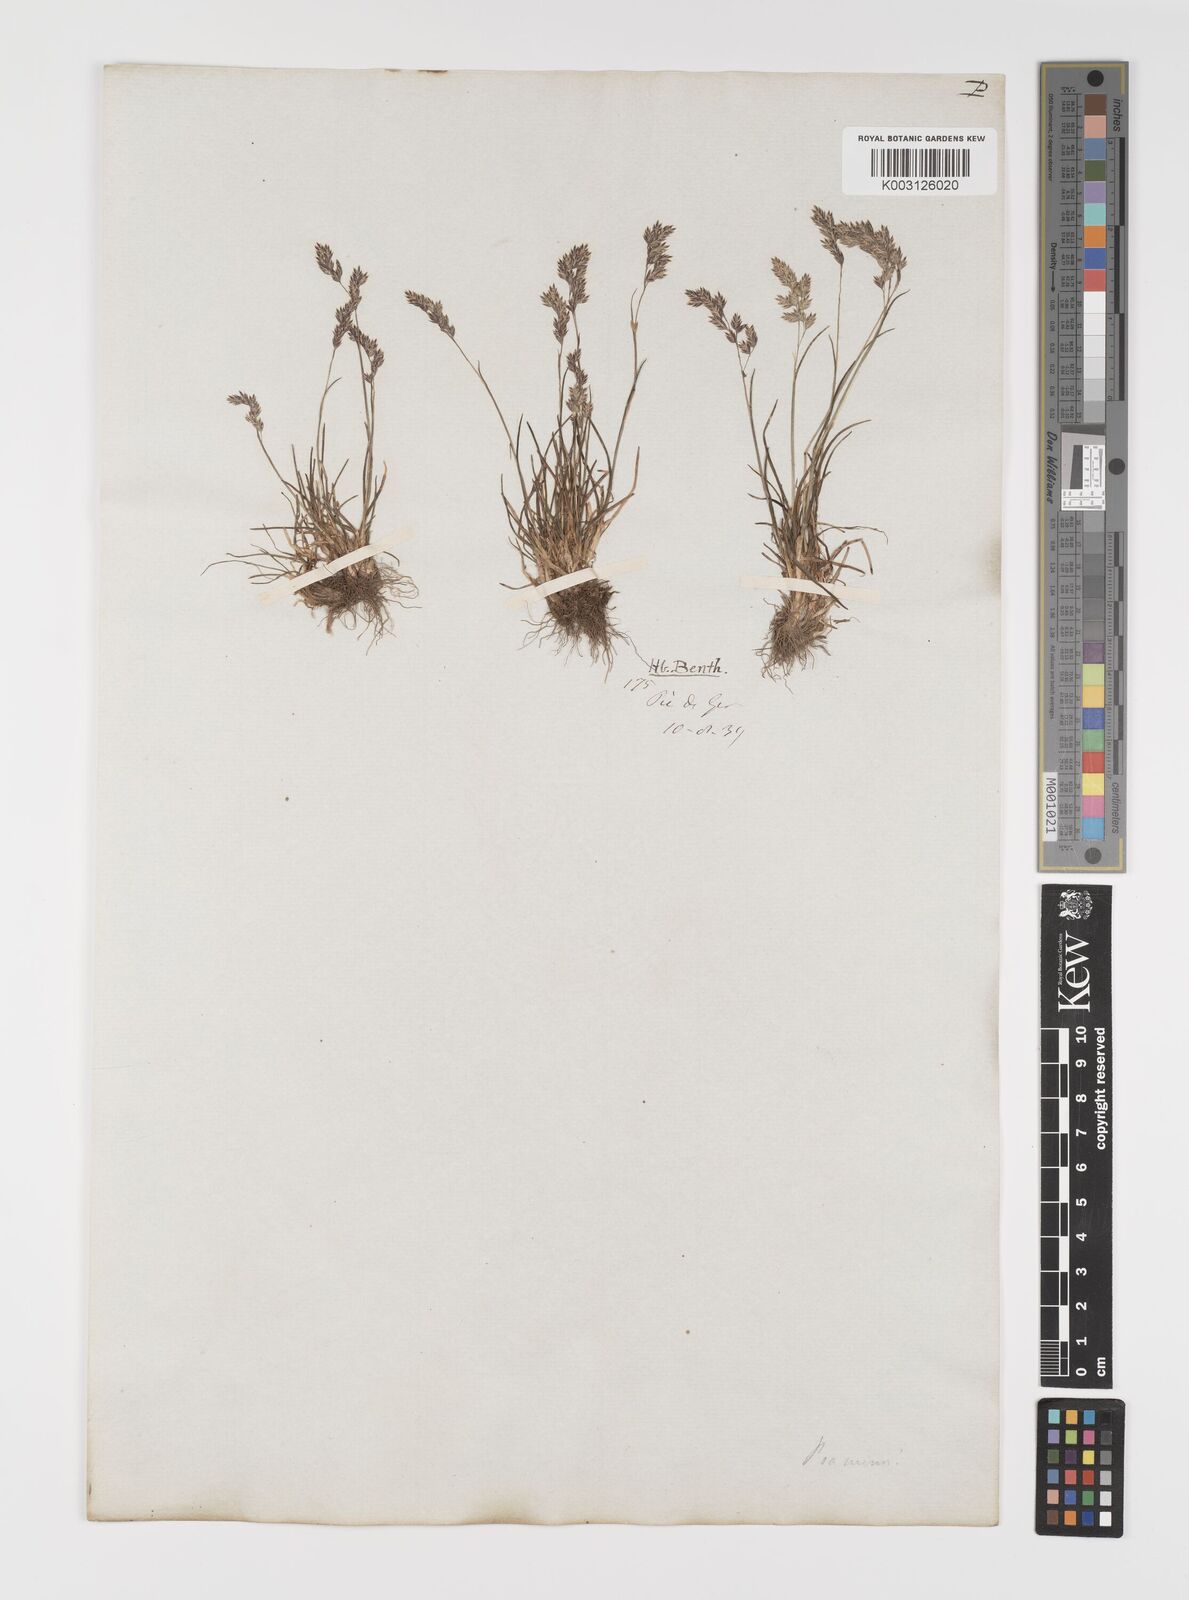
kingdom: Plantae
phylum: Tracheophyta
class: Liliopsida
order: Poales
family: Poaceae
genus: Poa
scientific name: Poa minor
